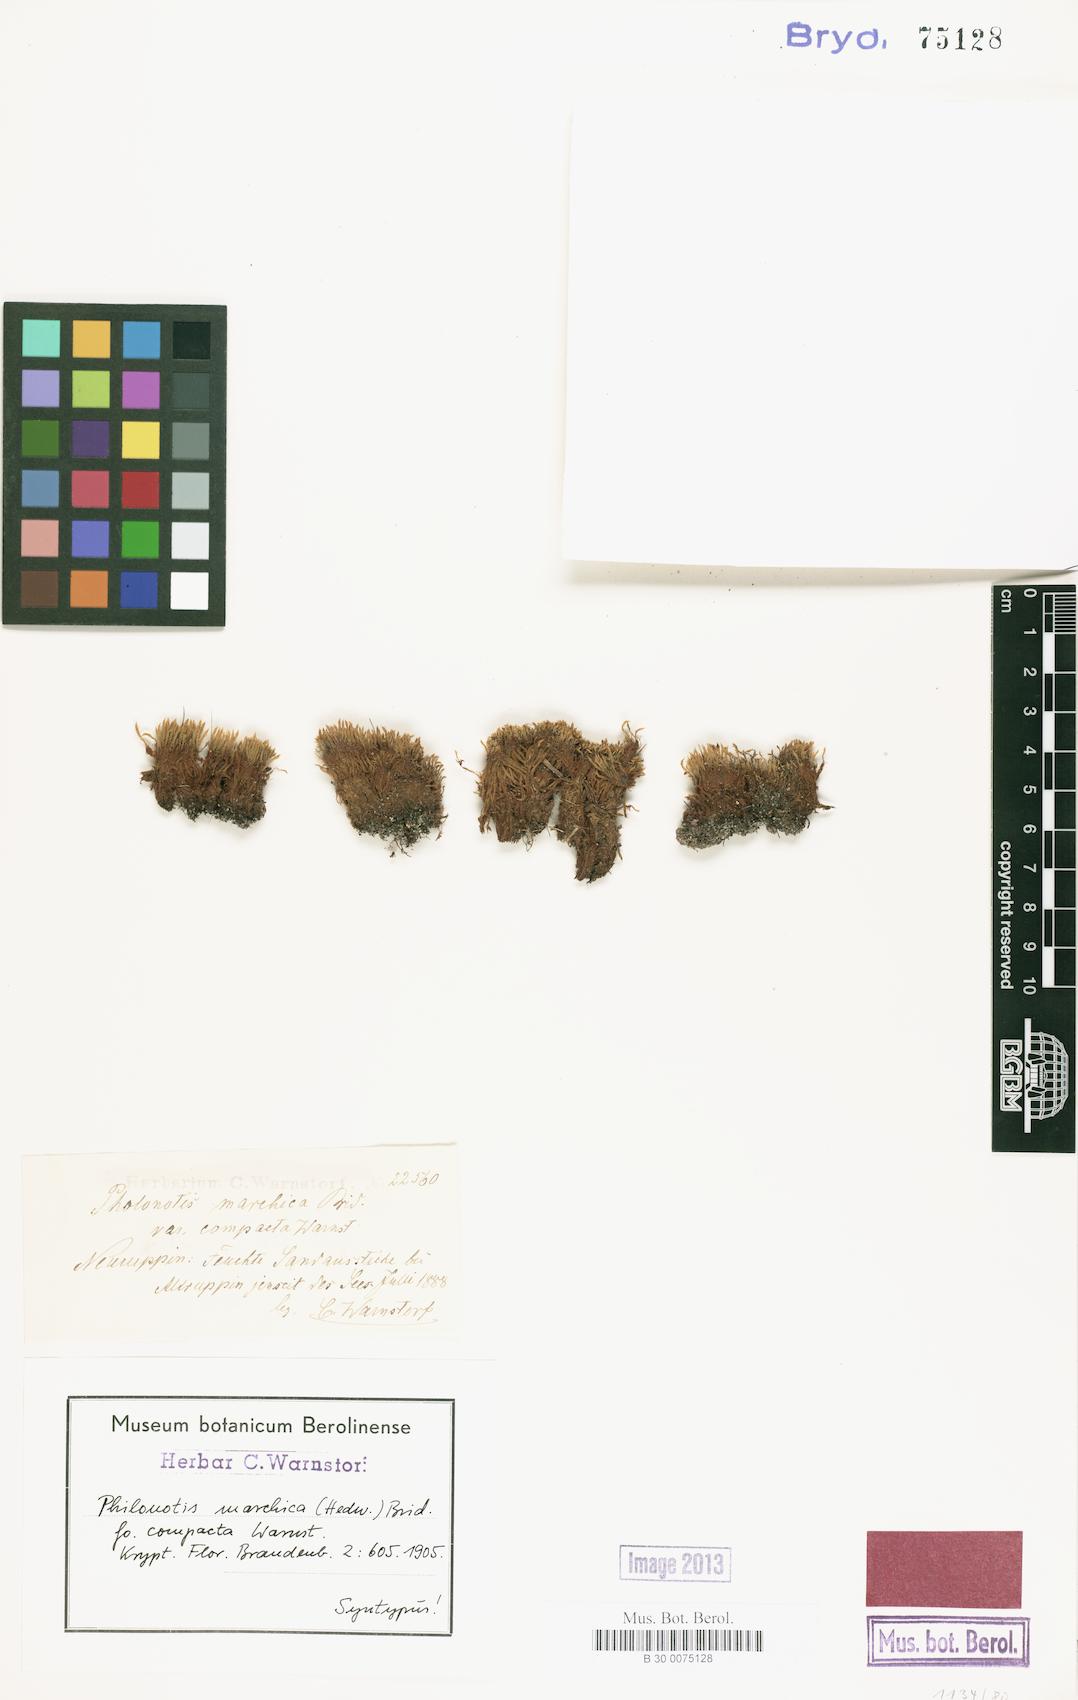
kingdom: Plantae
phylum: Bryophyta
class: Bryopsida
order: Bartramiales
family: Bartramiaceae
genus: Philonotis
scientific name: Philonotis marchica
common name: Bog apple moss
